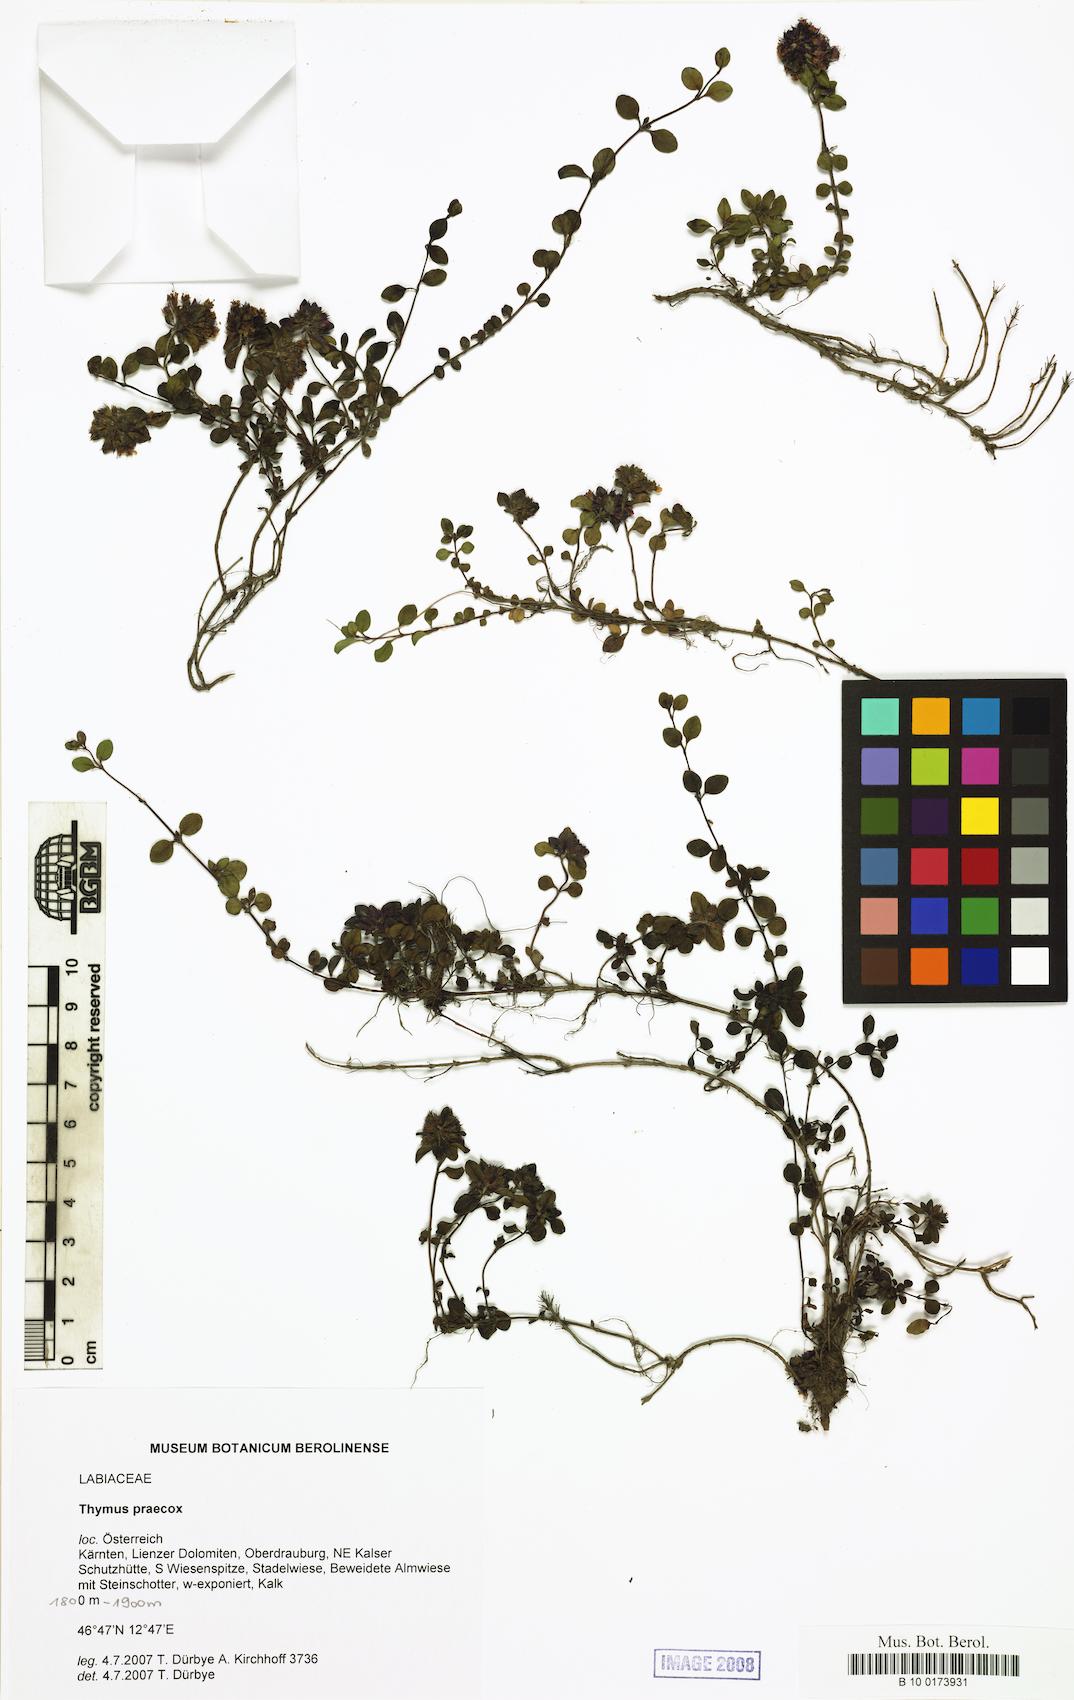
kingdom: Plantae
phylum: Tracheophyta
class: Magnoliopsida
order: Lamiales
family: Lamiaceae
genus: Thymus
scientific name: Thymus praecox
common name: Wild thyme
